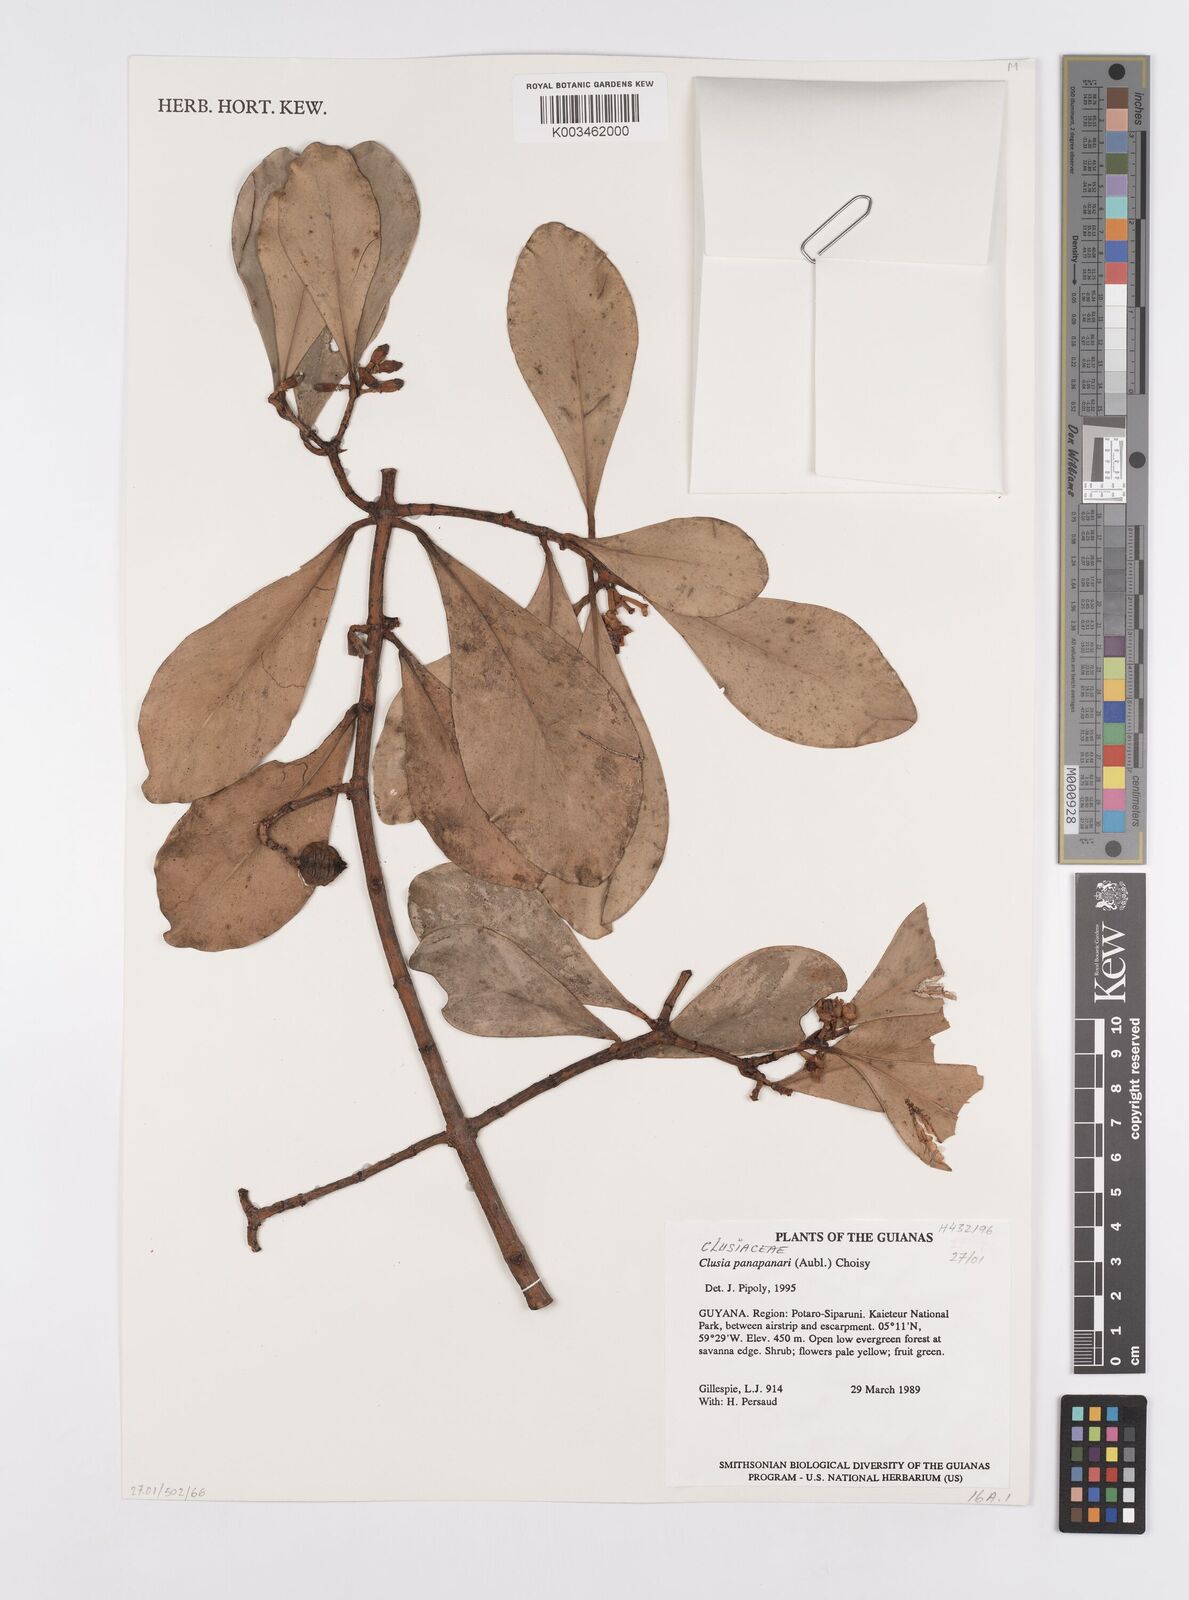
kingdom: Plantae
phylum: Tracheophyta
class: Magnoliopsida
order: Malpighiales
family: Clusiaceae
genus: Clusia
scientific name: Clusia panapanari
